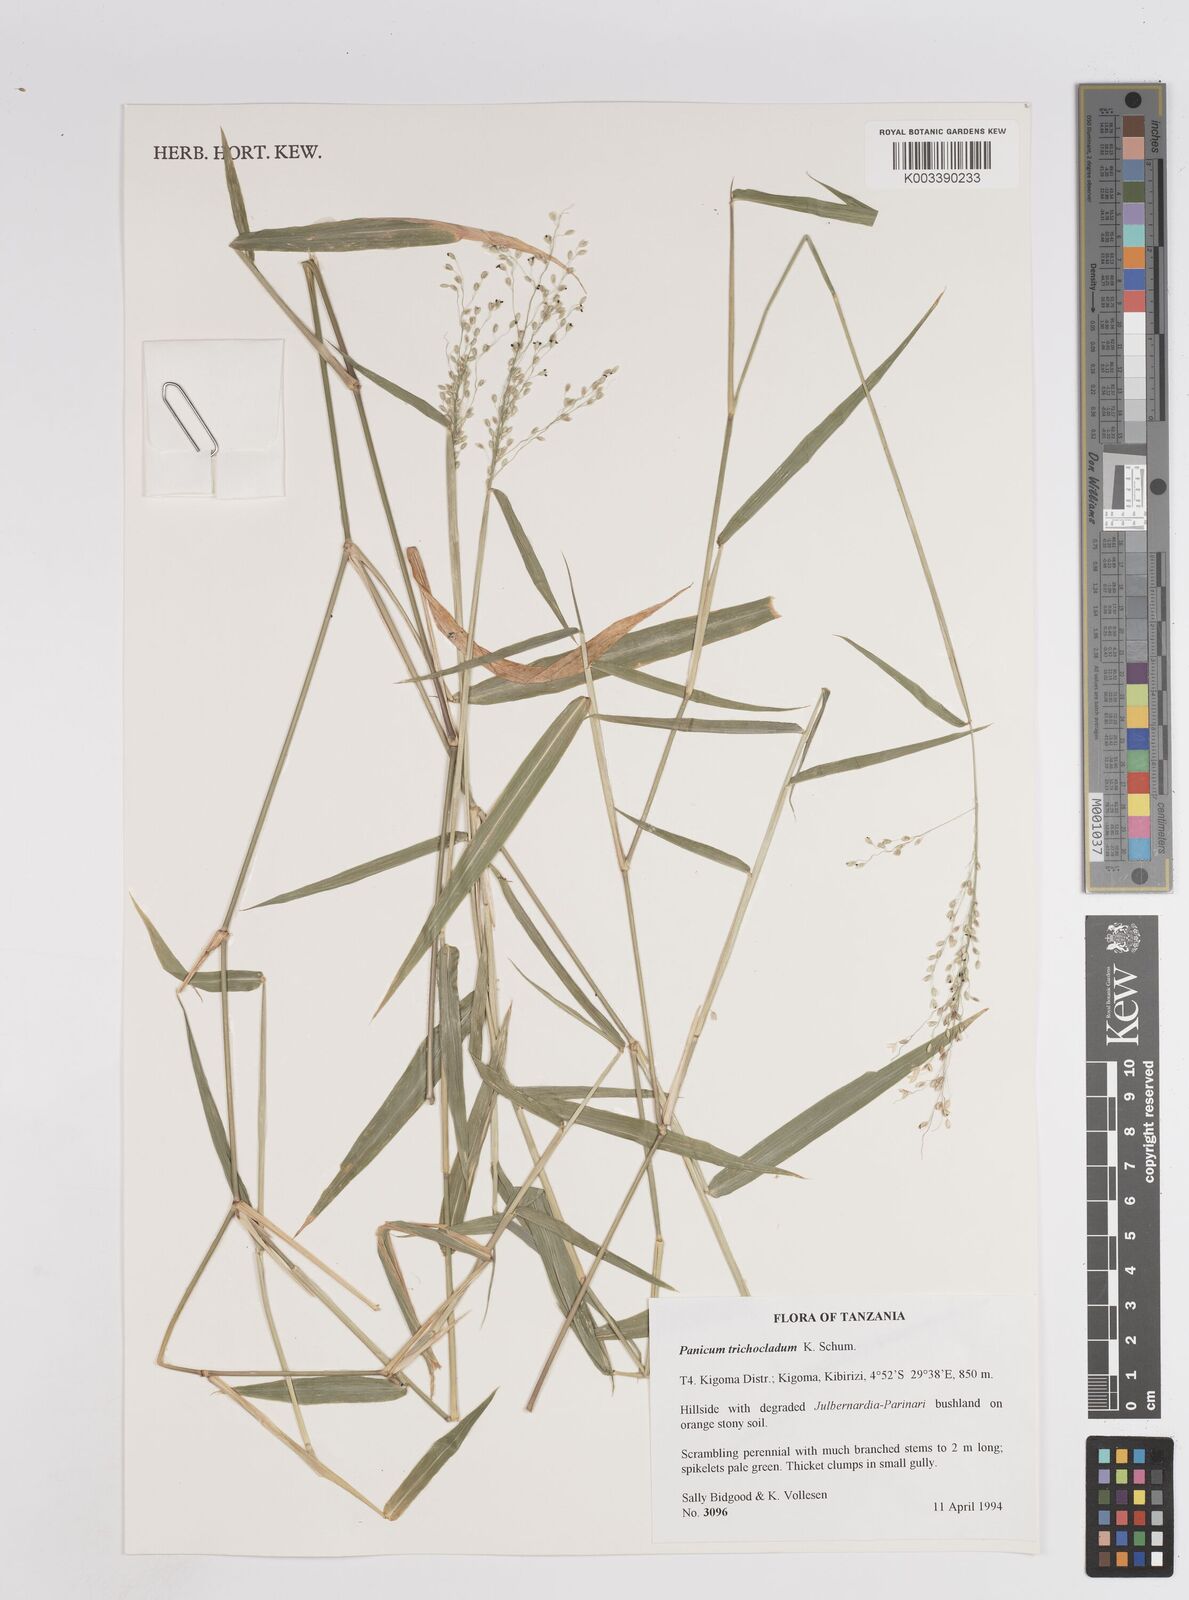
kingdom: Plantae
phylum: Tracheophyta
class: Liliopsida
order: Poales
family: Poaceae
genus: Panicum
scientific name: Panicum trichocladum
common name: Donkey grass
